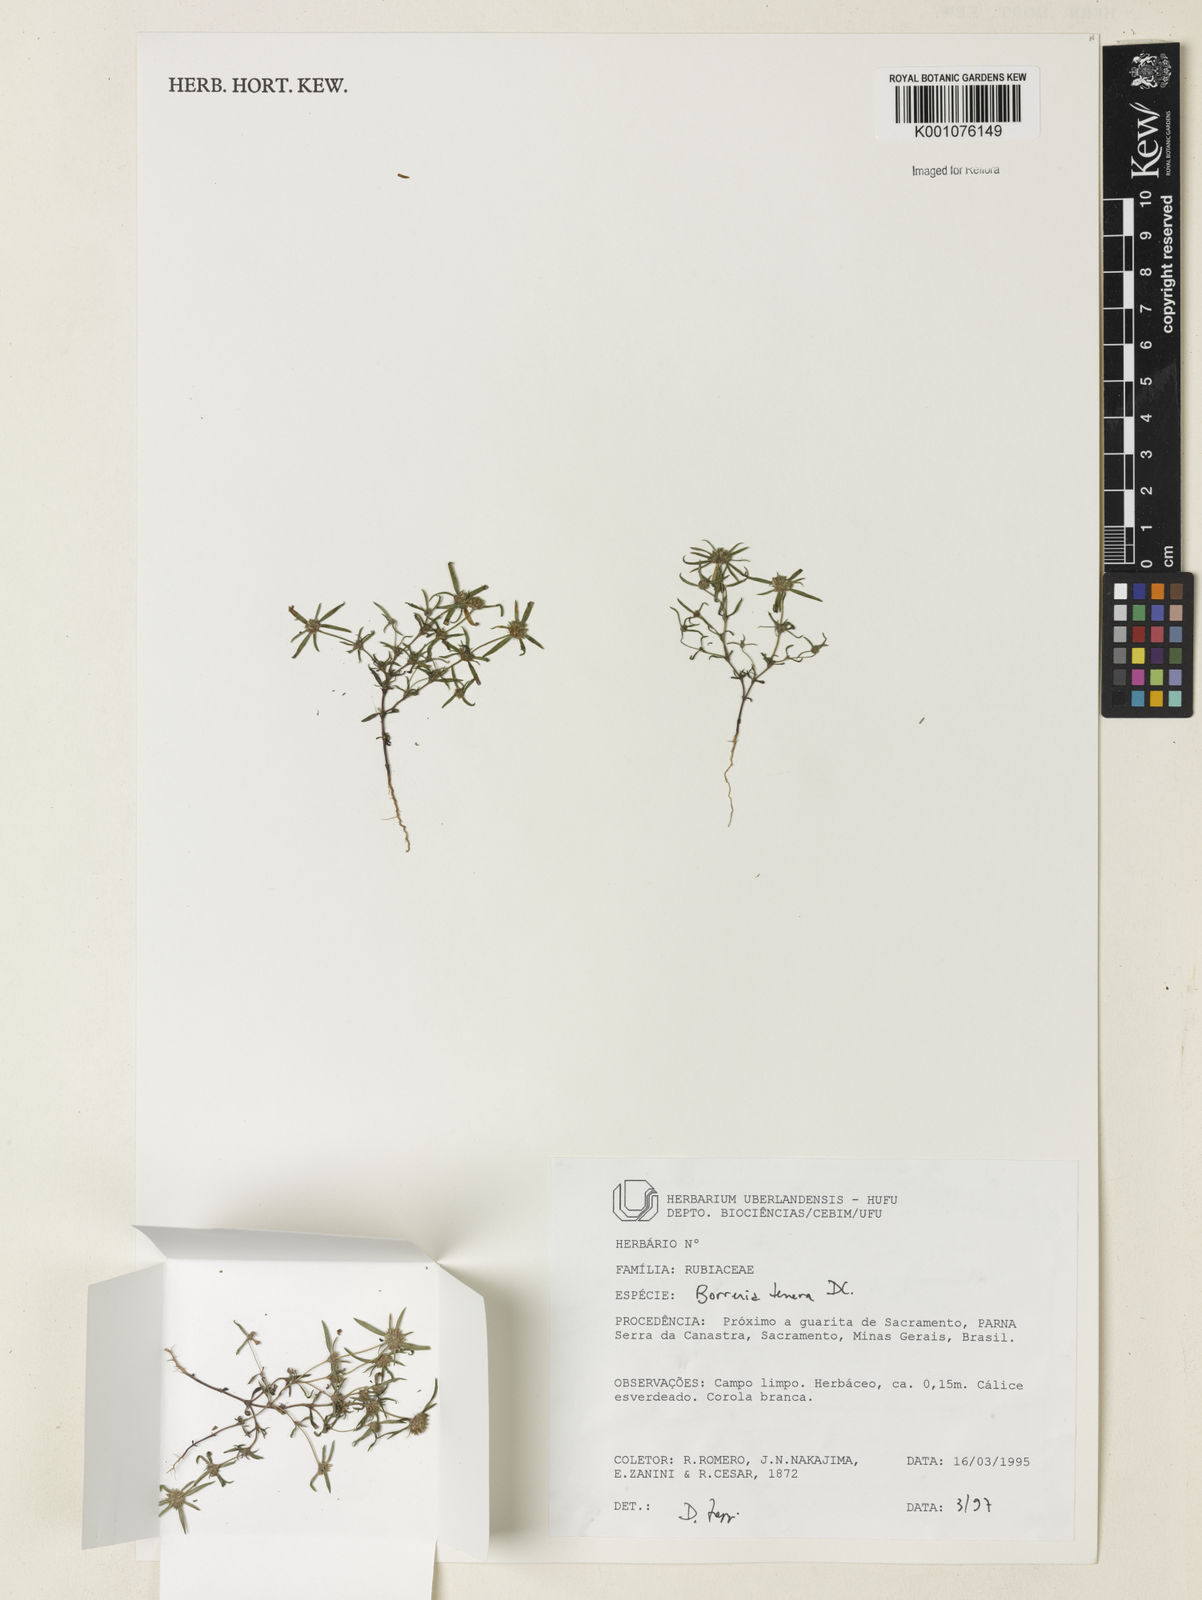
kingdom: Plantae
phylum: Tracheophyta
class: Magnoliopsida
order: Gentianales
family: Rubiaceae
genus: Spermacoce
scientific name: Spermacoce ocymoides
